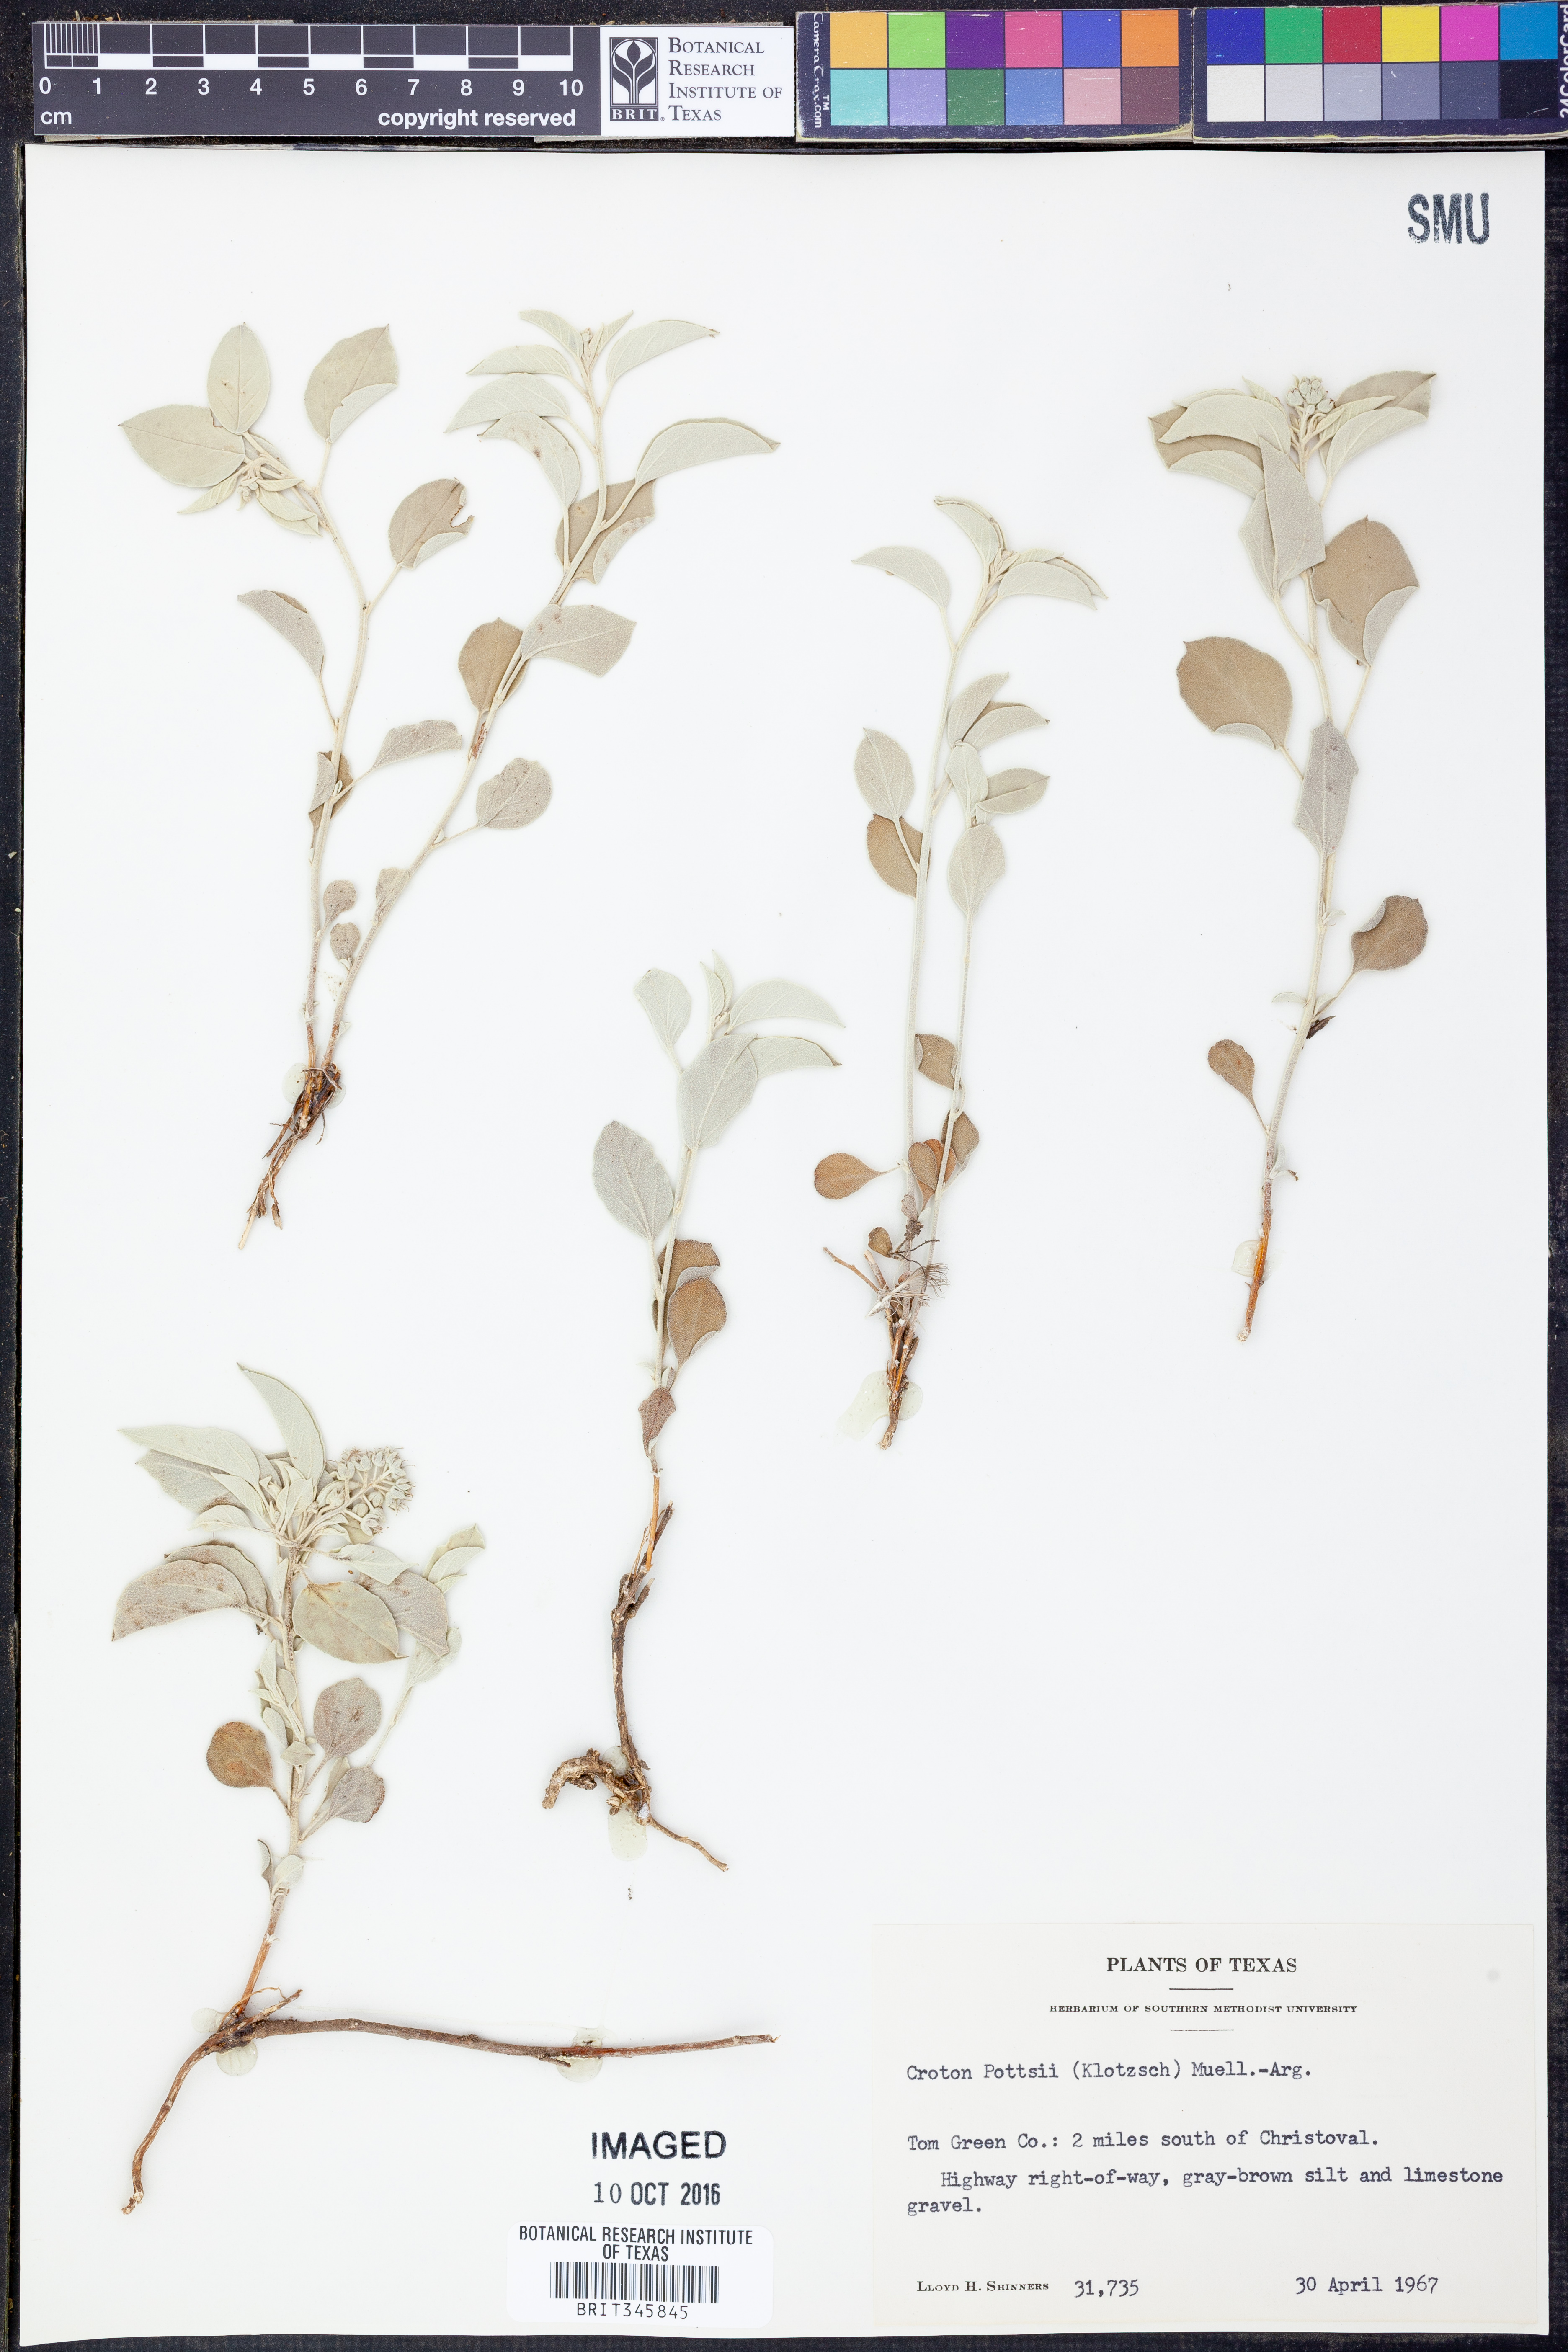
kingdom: Plantae
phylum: Tracheophyta
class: Magnoliopsida
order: Malpighiales
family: Euphorbiaceae
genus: Croton
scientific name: Croton pottsii
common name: Leatherweed
